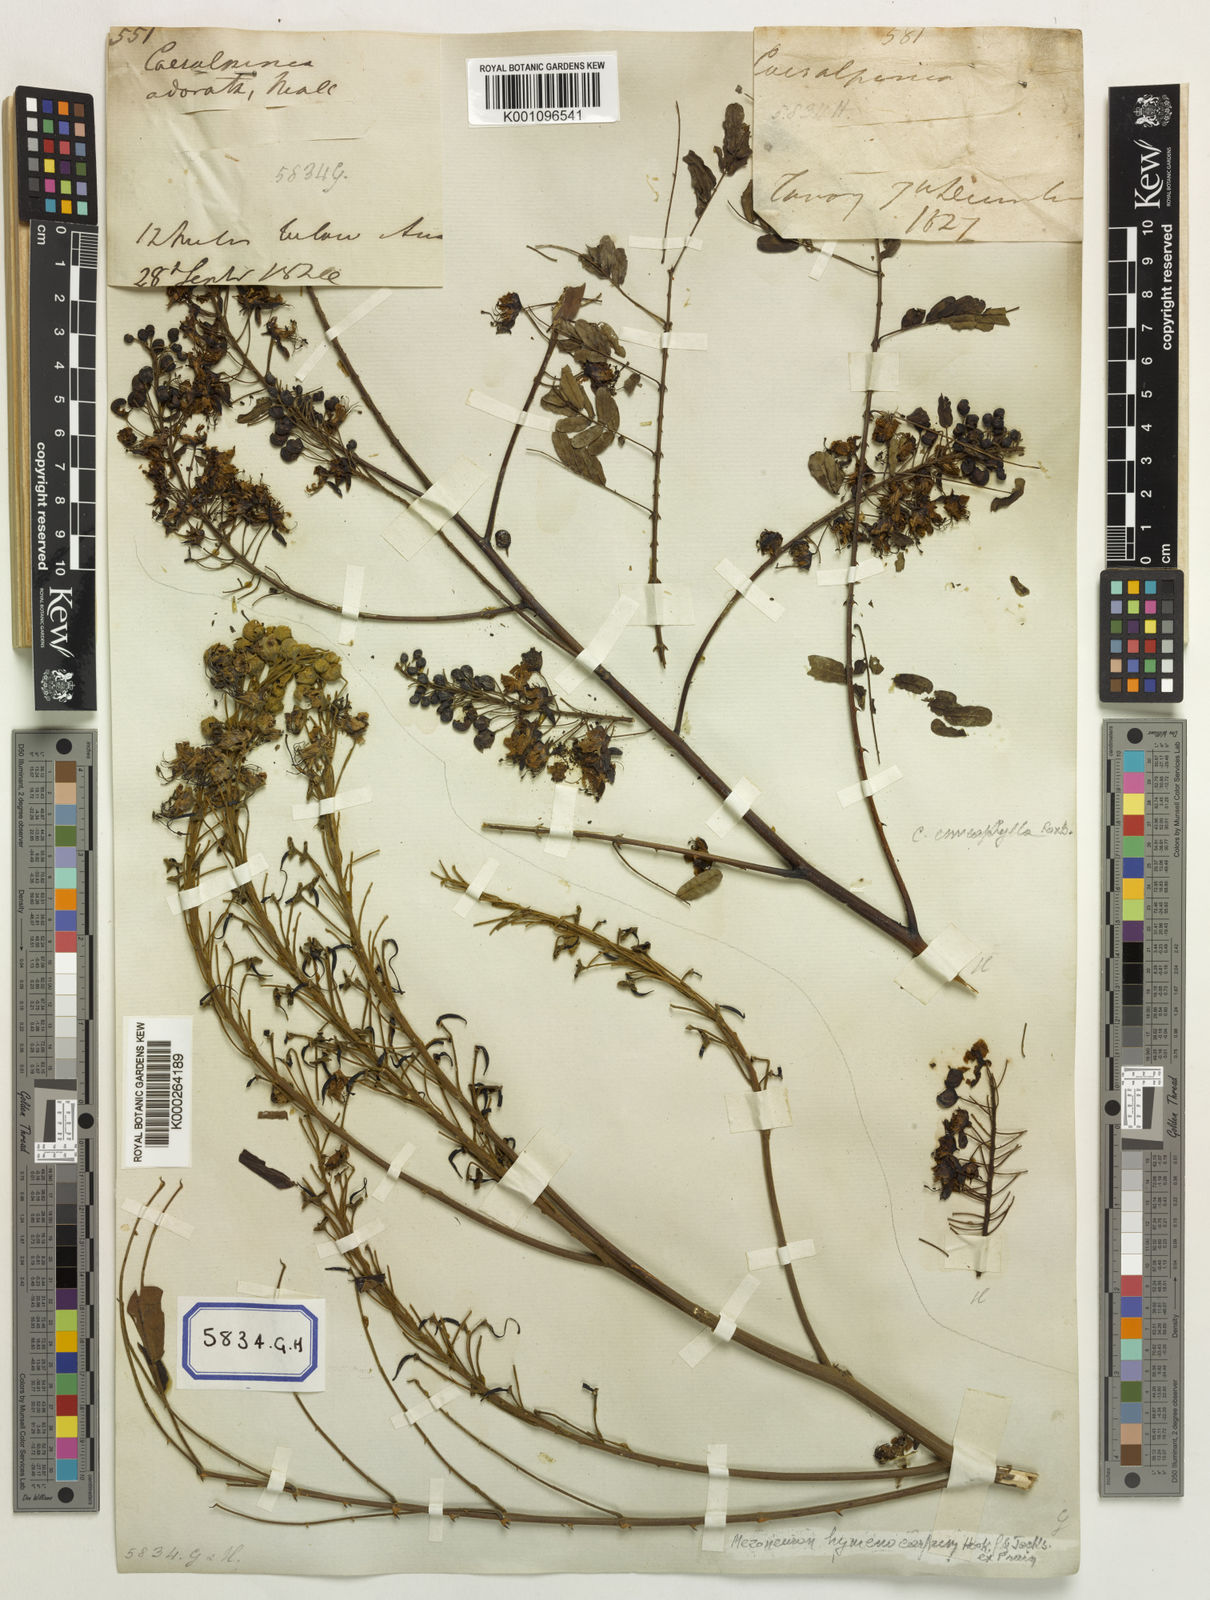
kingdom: Plantae
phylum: Tracheophyta
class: Magnoliopsida
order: Fabales
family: Fabaceae
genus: Caesalpinia
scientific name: Caesalpinia
